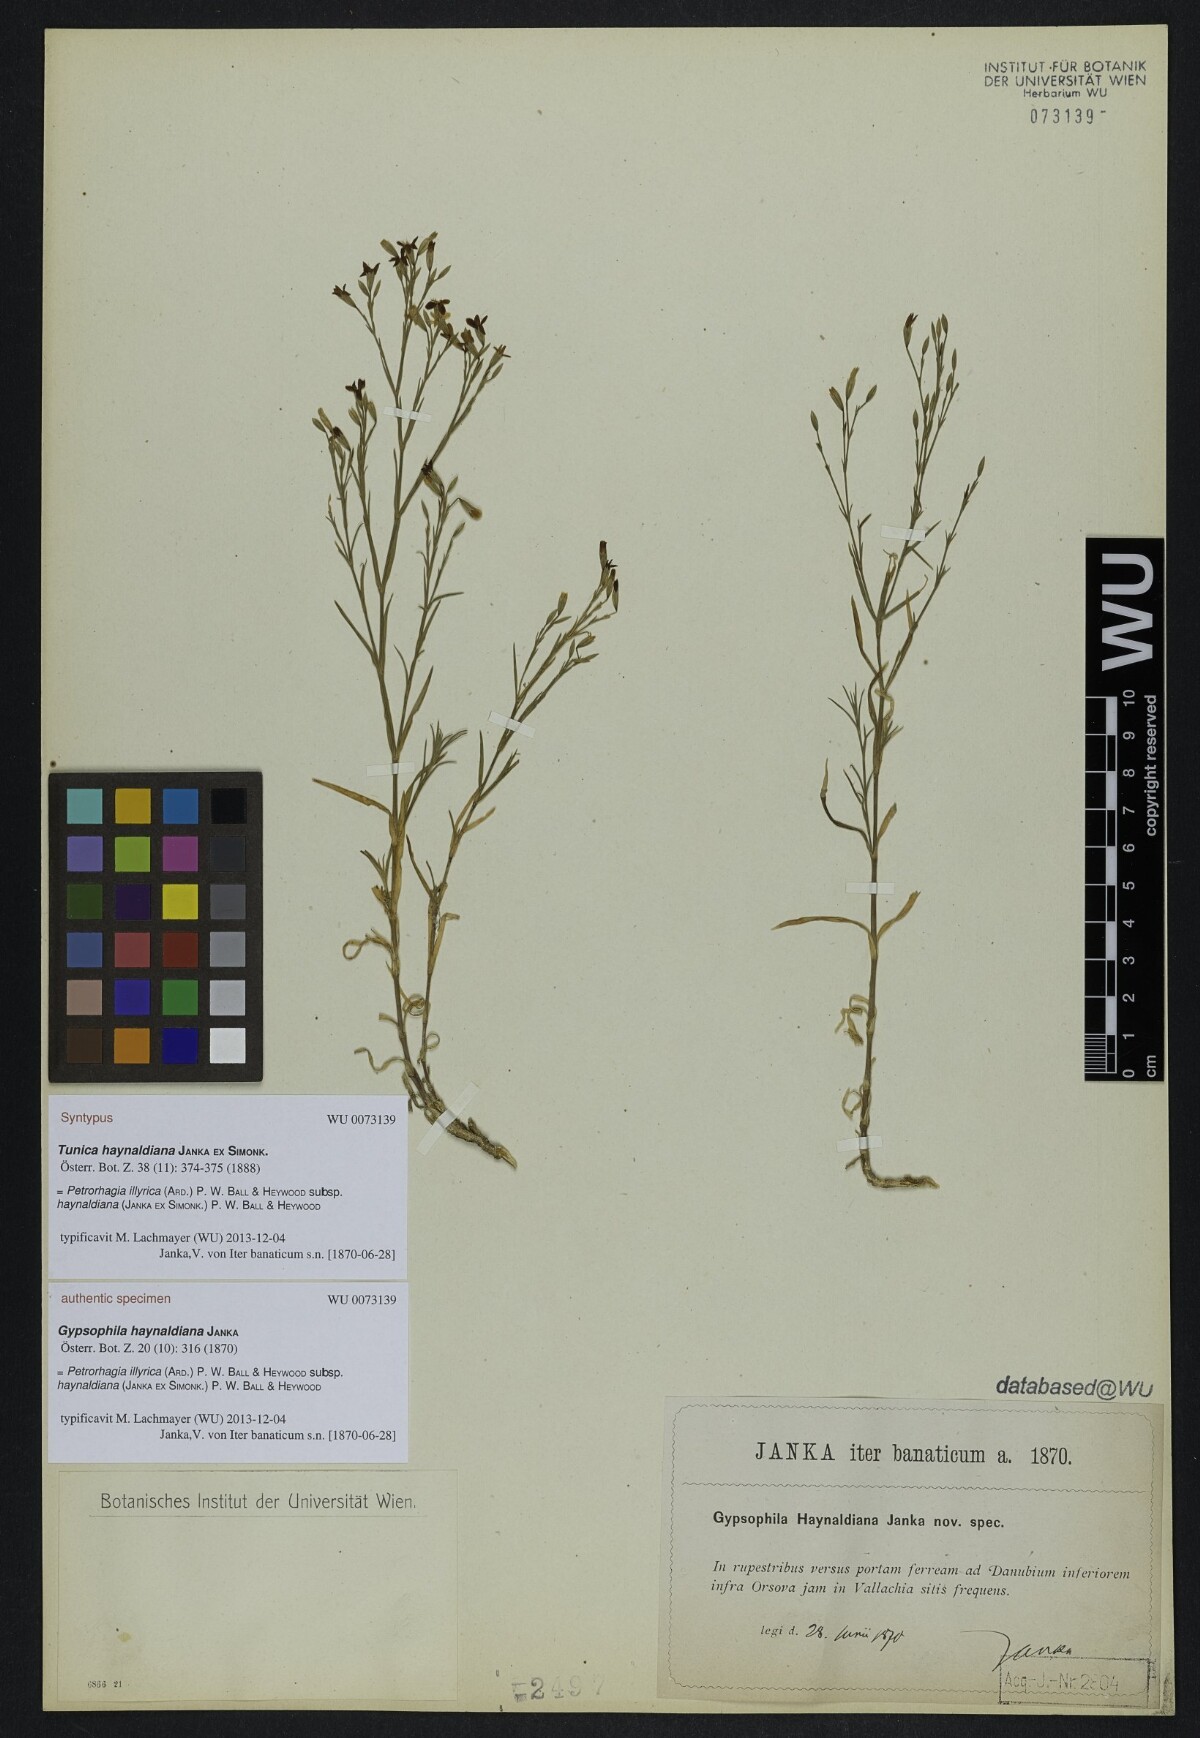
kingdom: Plantae
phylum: Tracheophyta
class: Magnoliopsida
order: Caryophyllales
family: Caryophyllaceae
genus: Dianthus
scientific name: Dianthus illyricus
